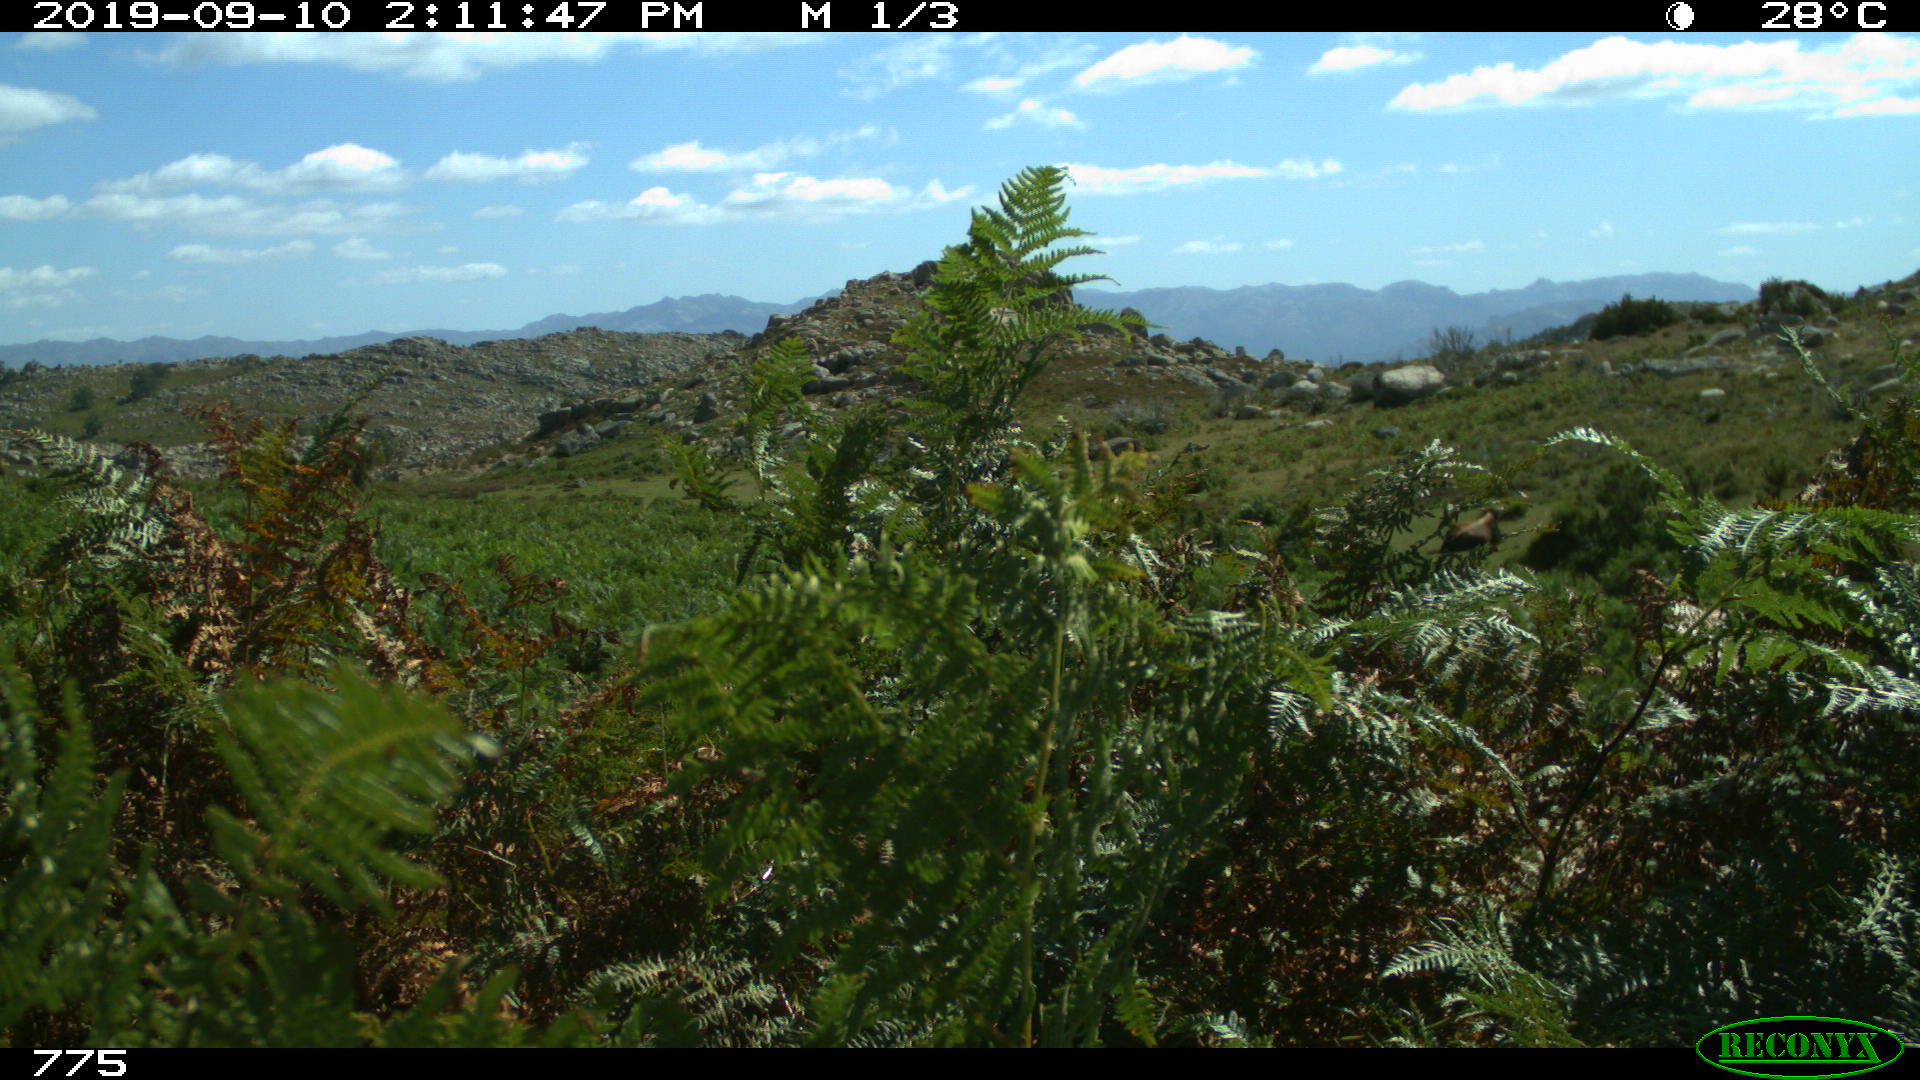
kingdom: Animalia
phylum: Chordata
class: Mammalia
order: Perissodactyla
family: Equidae
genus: Equus
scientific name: Equus caballus
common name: Horse
